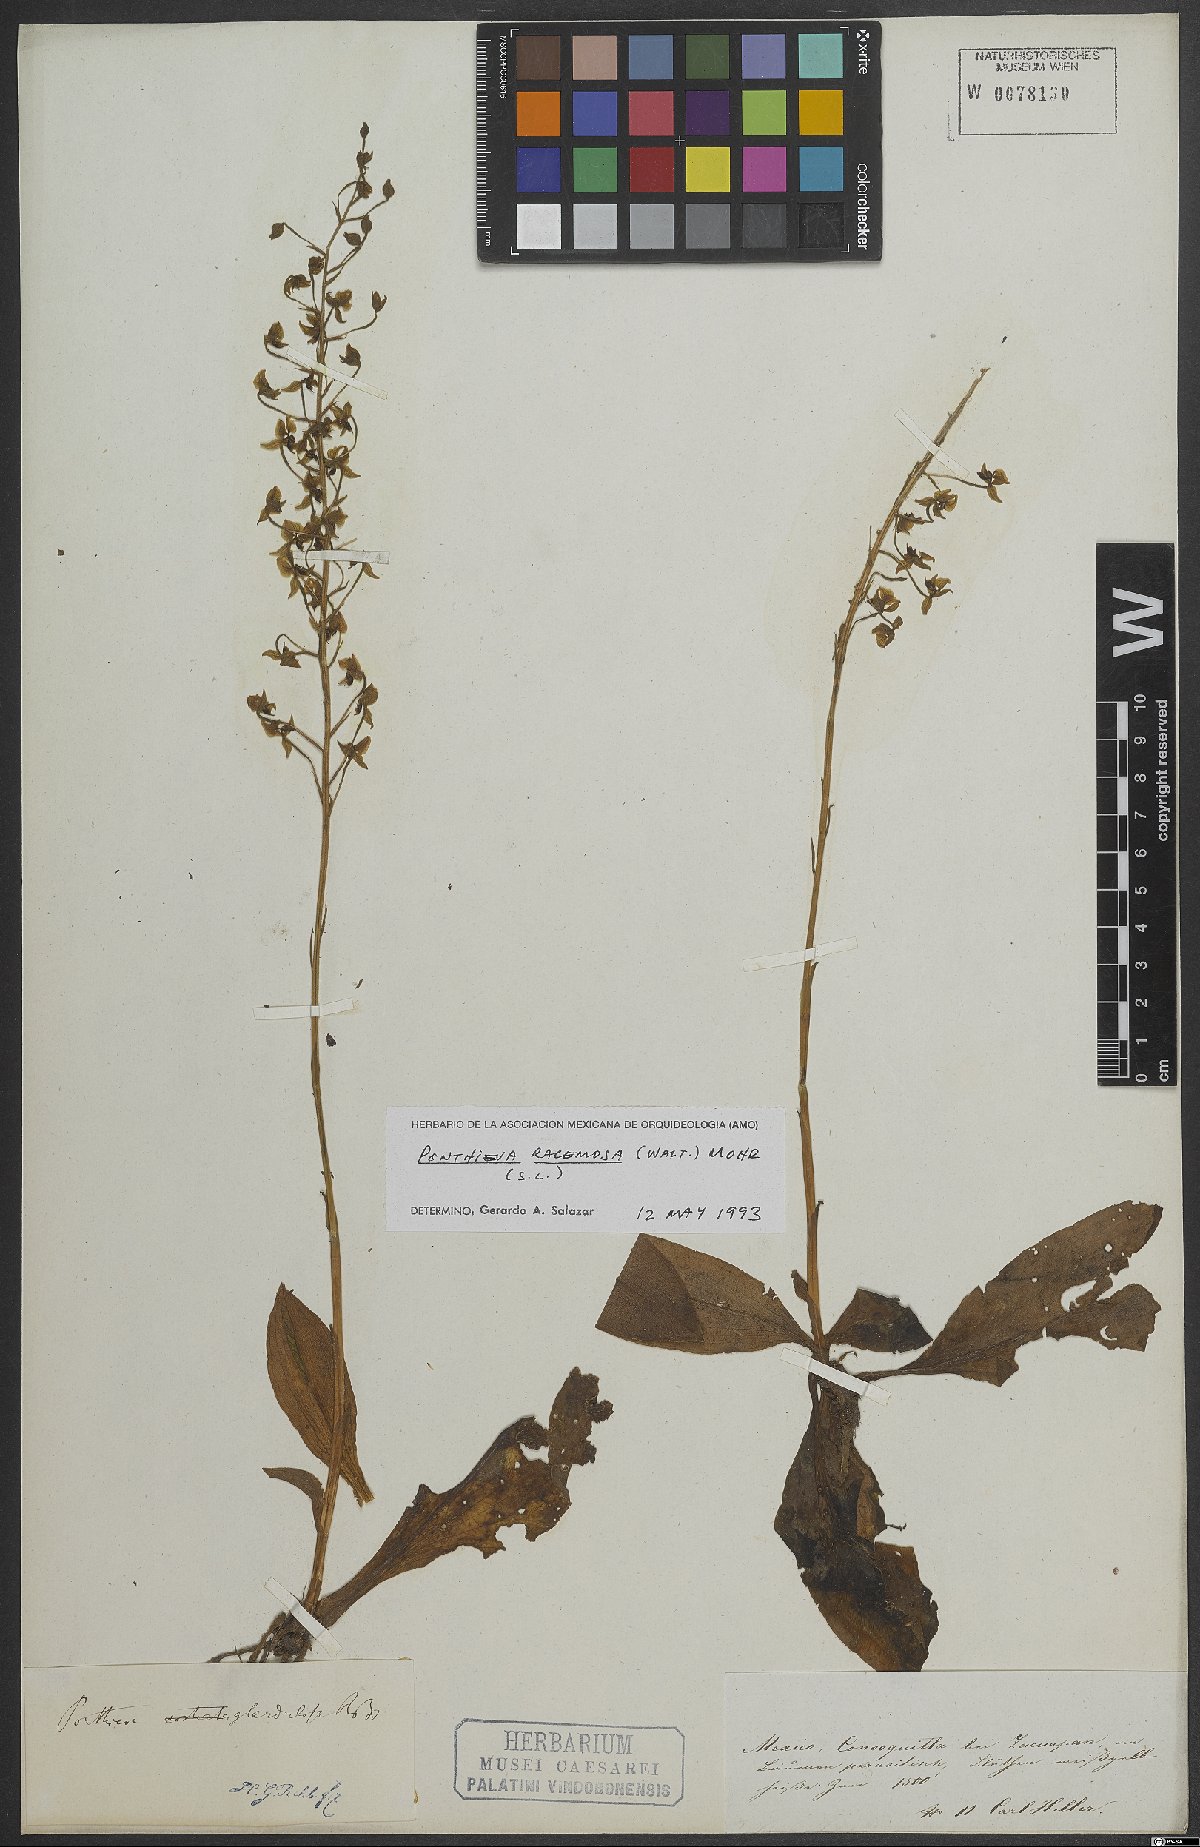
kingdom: Plantae
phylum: Tracheophyta
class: Liliopsida
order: Asparagales
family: Orchidaceae
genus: Ponthieva
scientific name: Ponthieva racemosa
